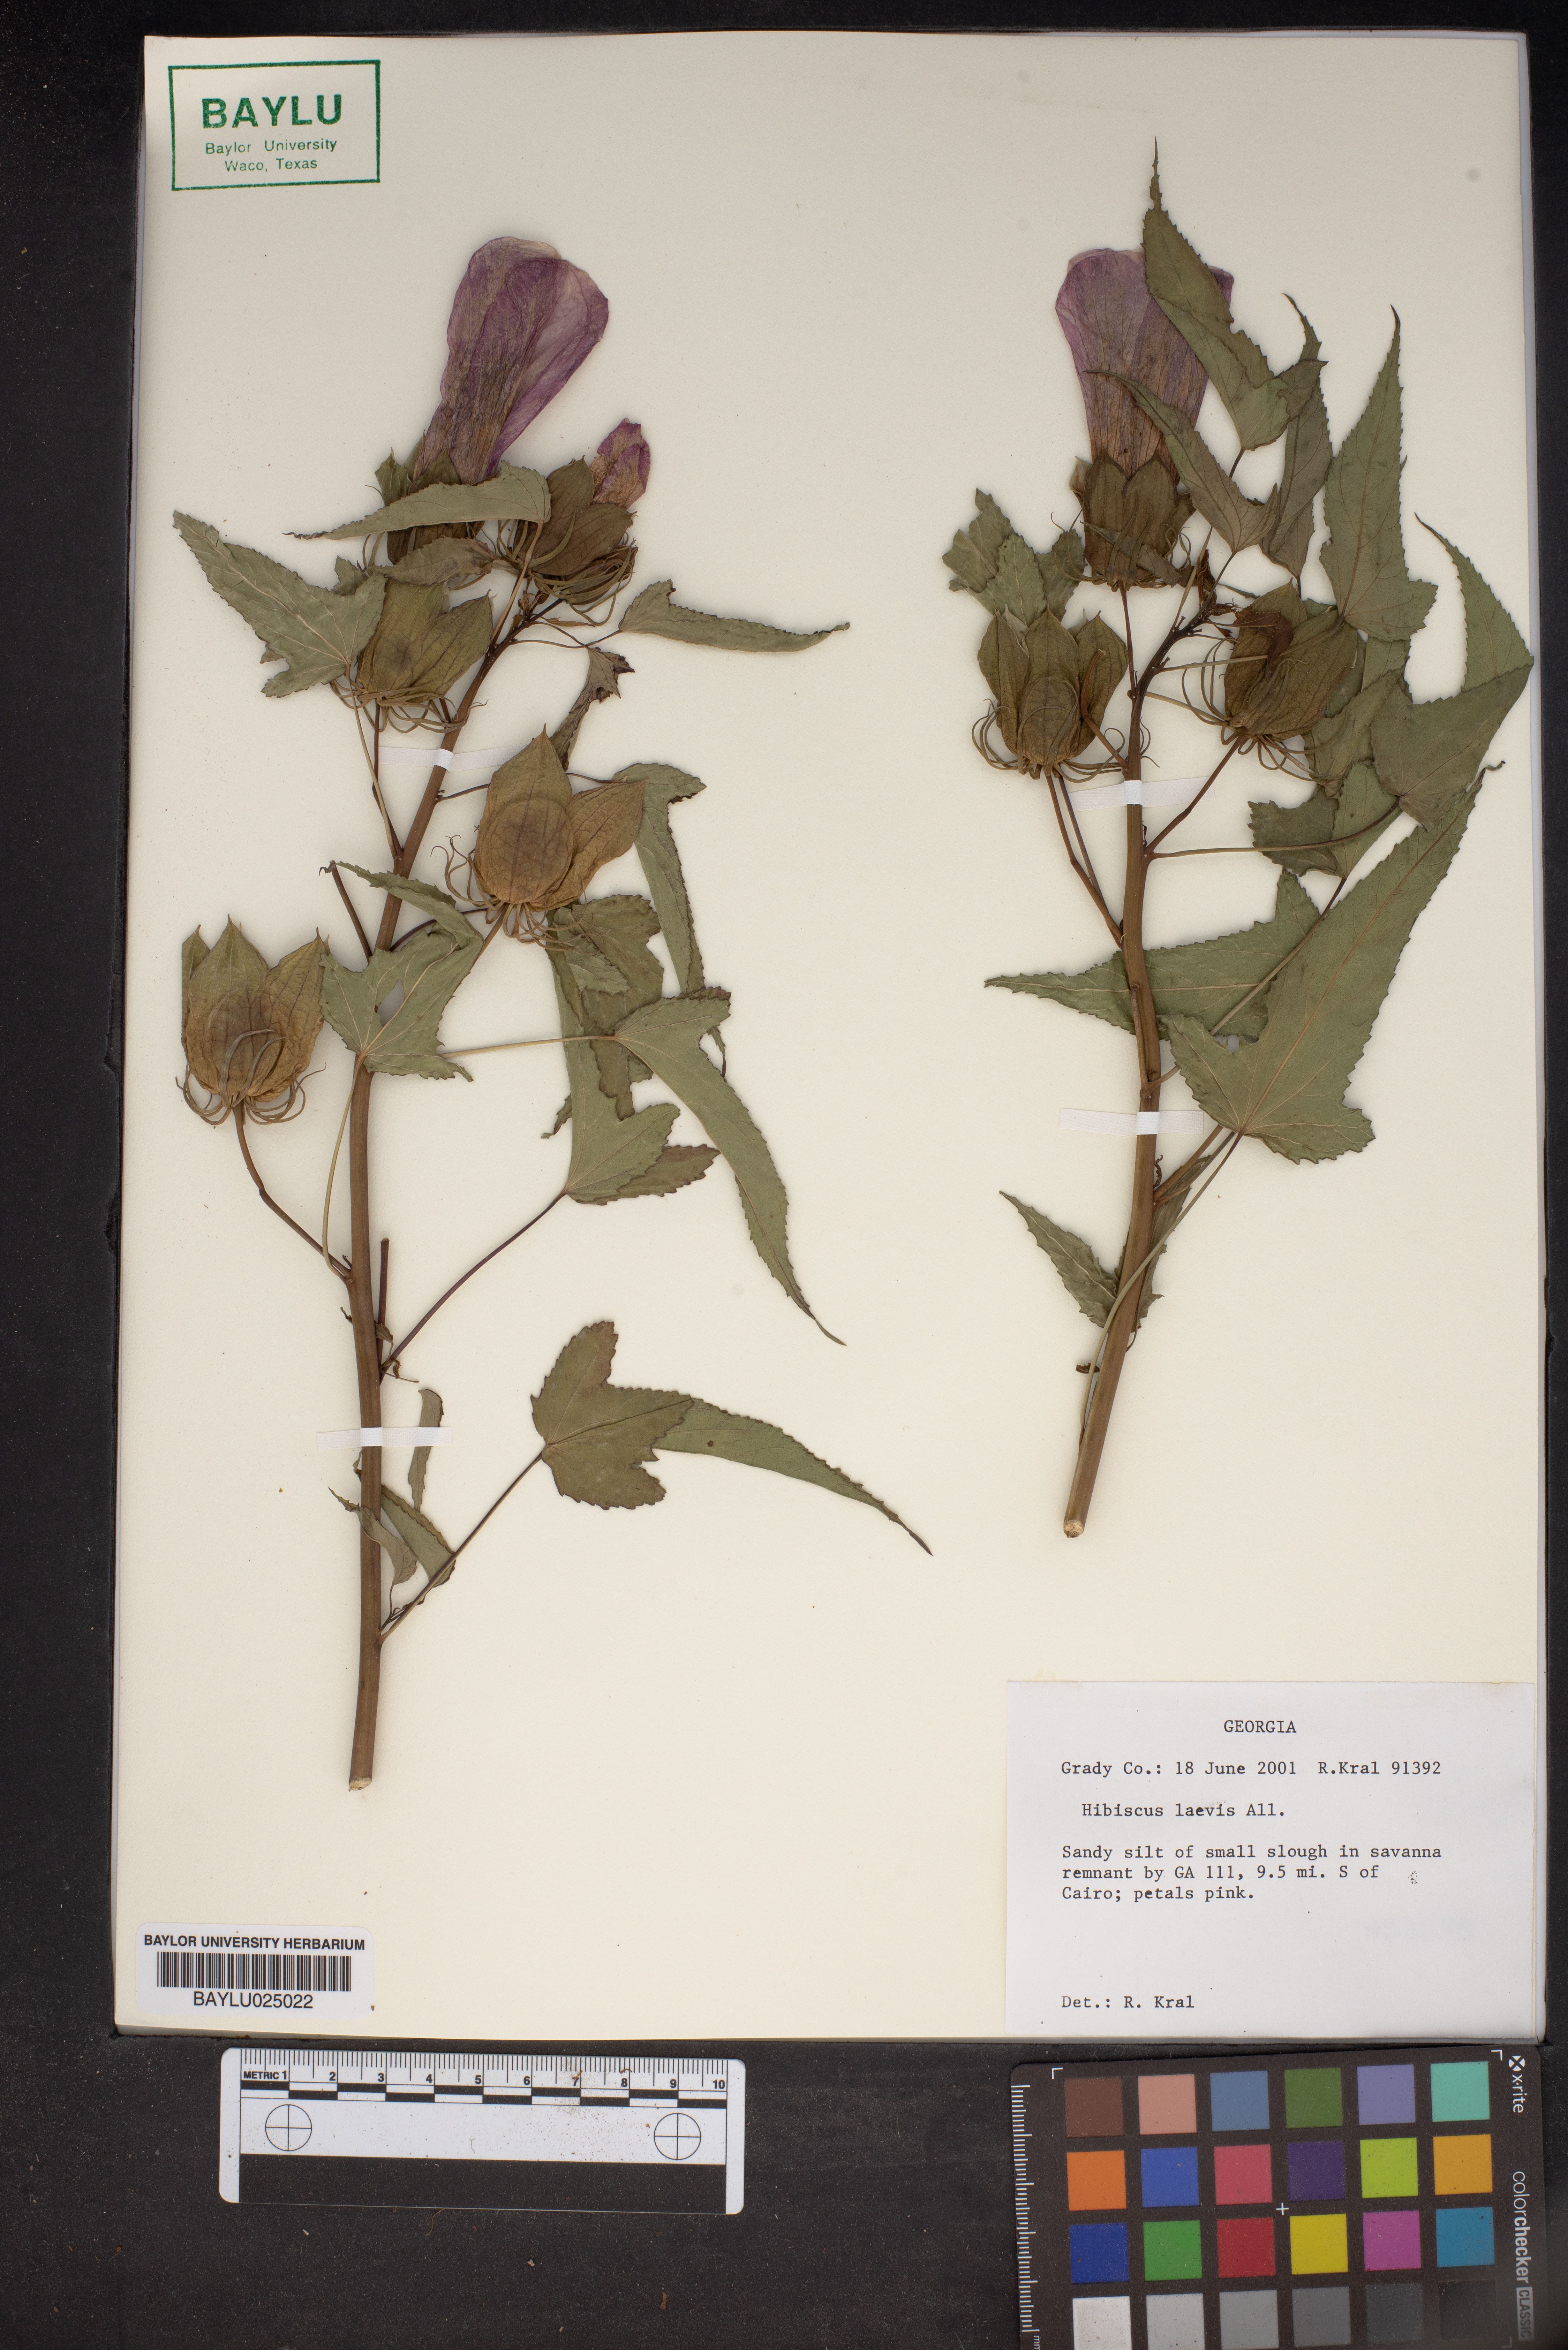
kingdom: Plantae
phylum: Tracheophyta
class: Magnoliopsida
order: Malvales
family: Malvaceae
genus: Hibiscus
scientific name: Hibiscus laevis
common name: Scarlet rose-mallow
